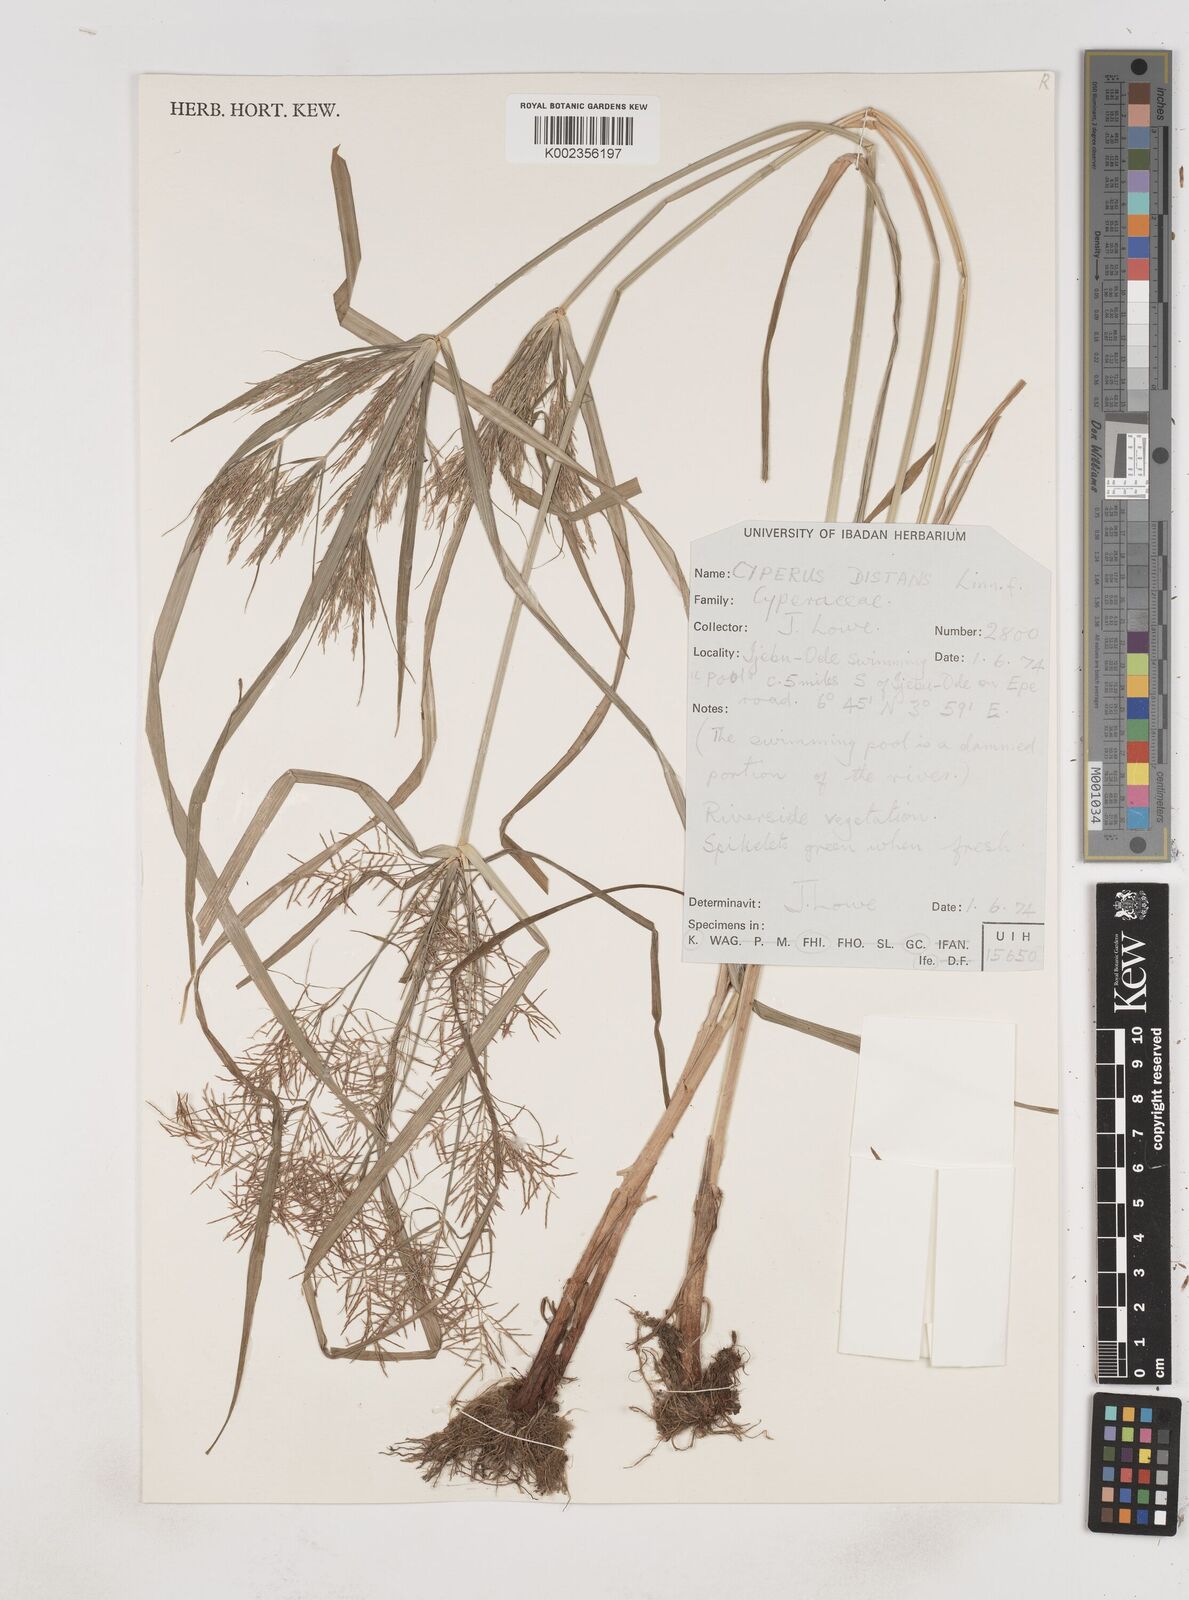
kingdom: Plantae
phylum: Tracheophyta
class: Liliopsida
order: Poales
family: Cyperaceae
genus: Cyperus
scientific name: Cyperus distans
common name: Slender cyperus
